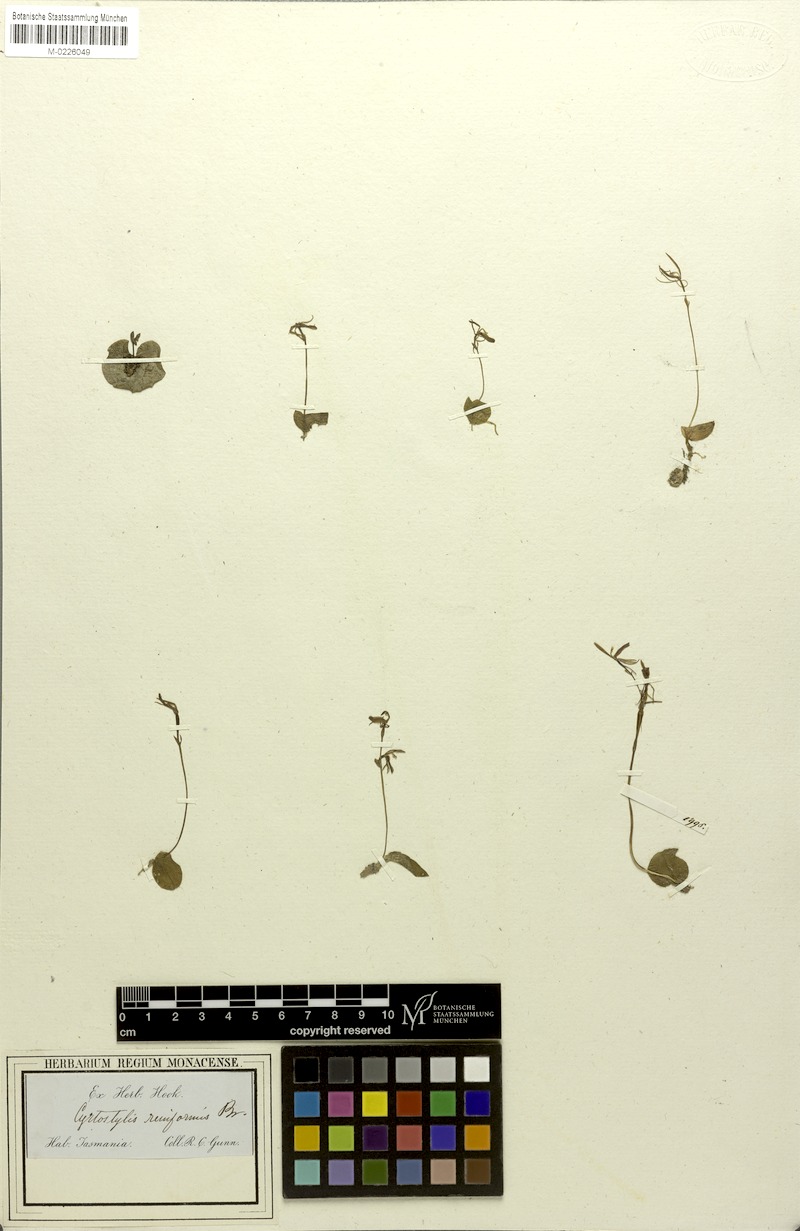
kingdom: Plantae
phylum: Tracheophyta
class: Liliopsida
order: Asparagales
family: Orchidaceae
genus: Cyrtostylis
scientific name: Cyrtostylis reniformis
